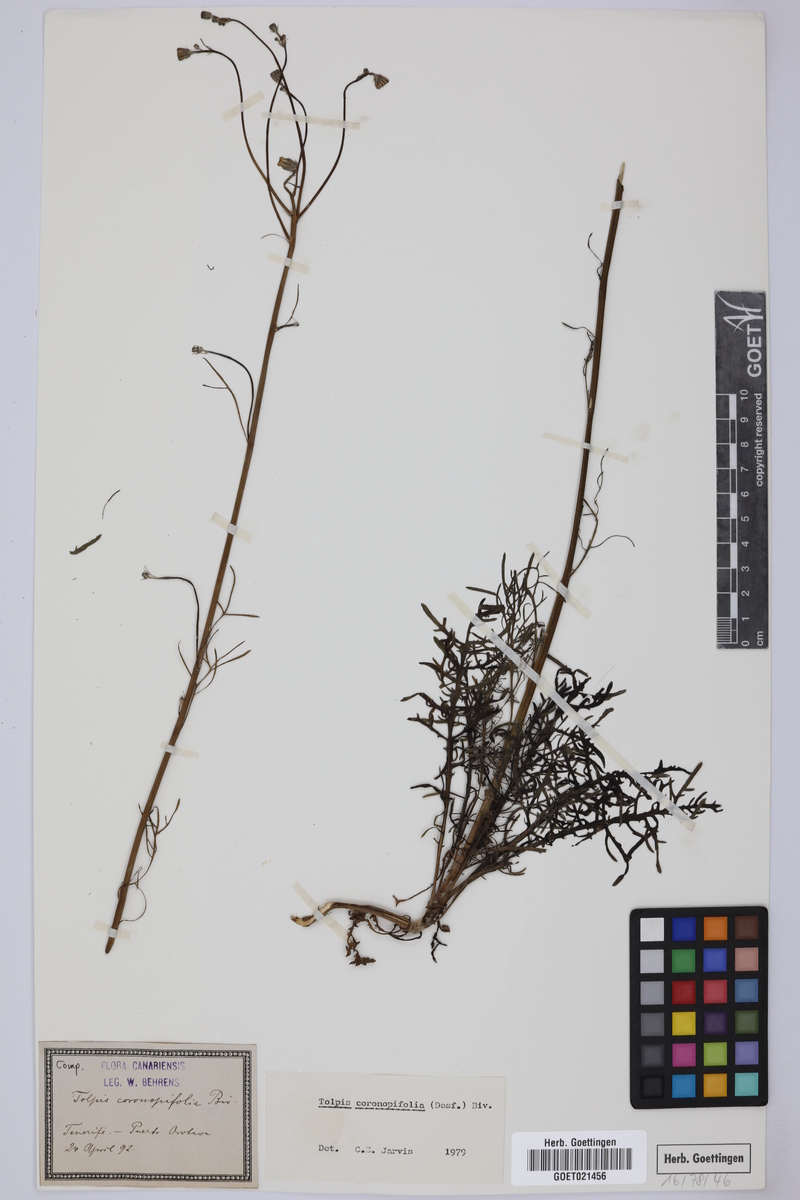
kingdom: Plantae
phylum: Tracheophyta
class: Magnoliopsida
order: Asterales
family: Asteraceae
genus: Tolpis
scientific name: Tolpis coronopifolia
